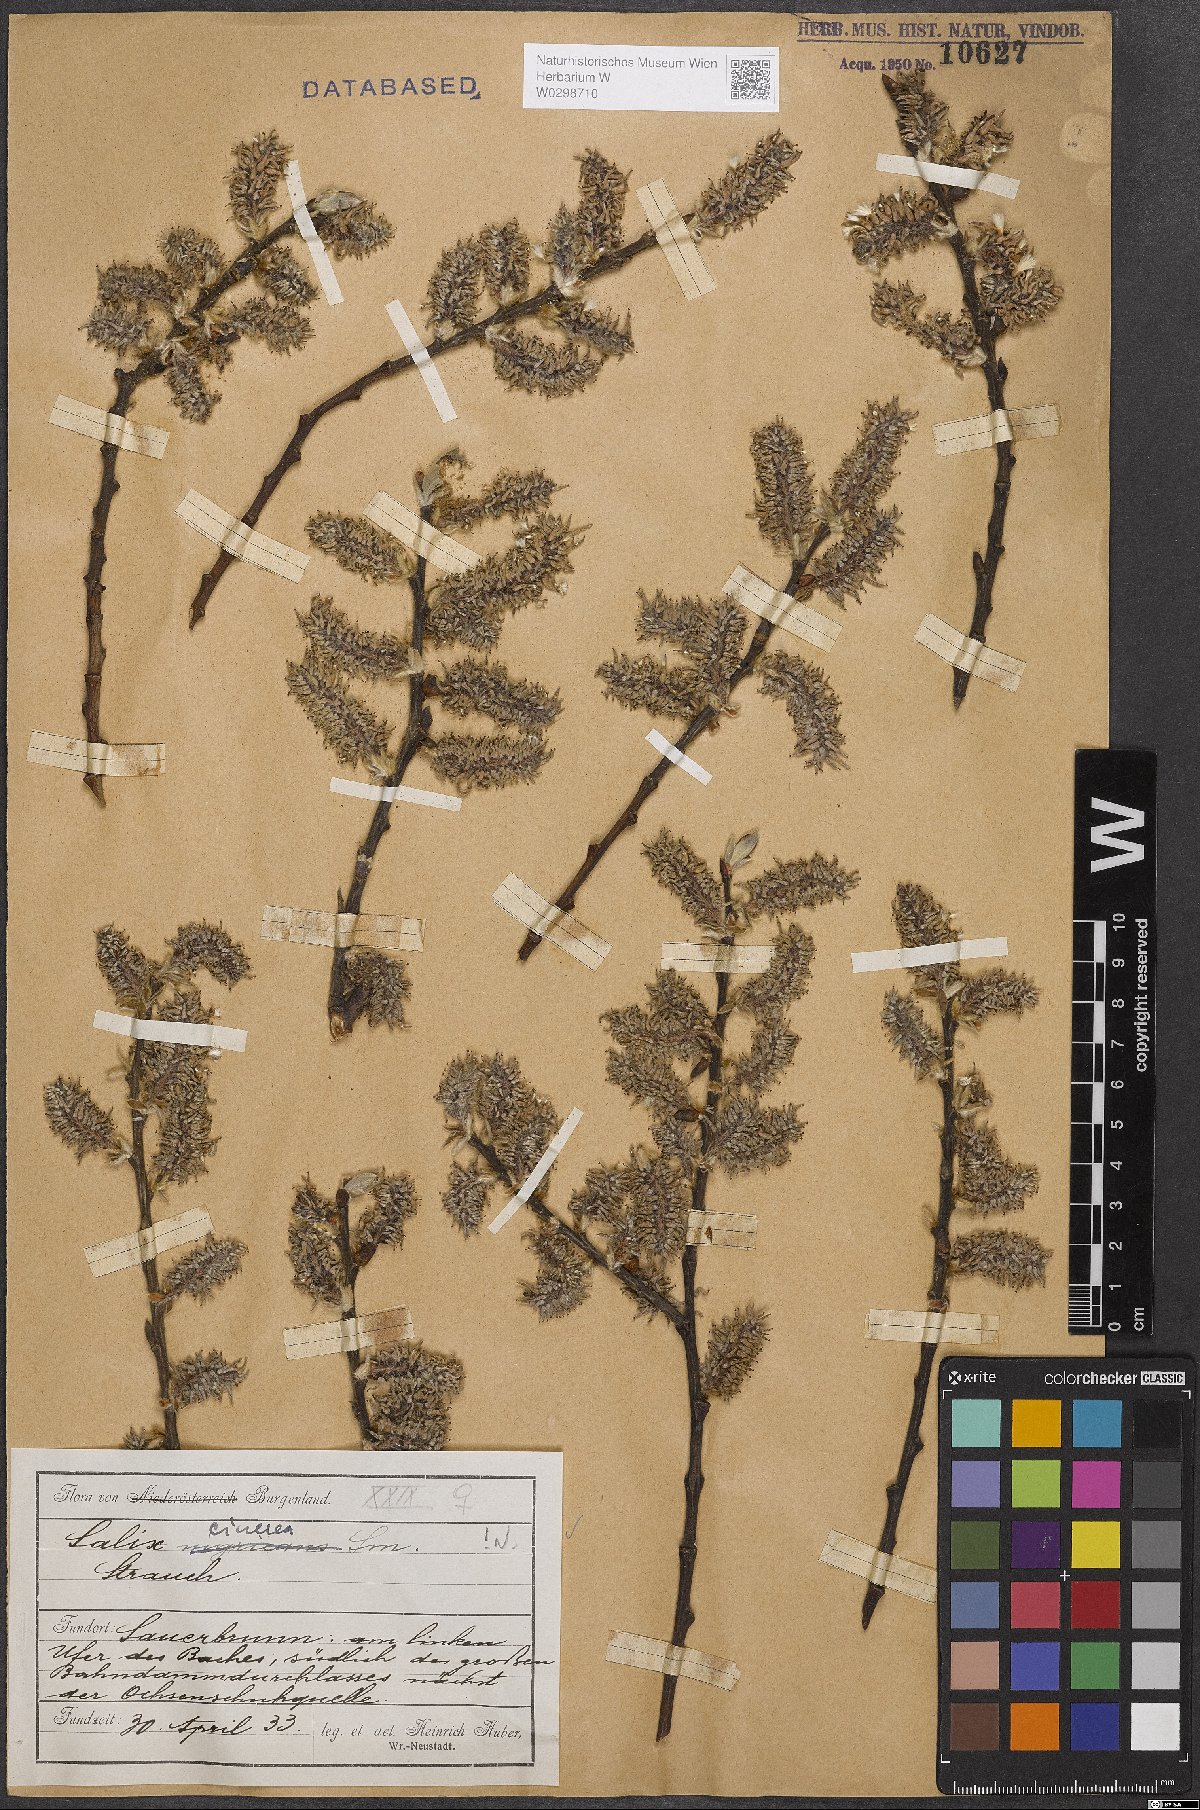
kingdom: Plantae
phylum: Tracheophyta
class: Magnoliopsida
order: Malpighiales
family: Salicaceae
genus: Salix
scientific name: Salix cinerea
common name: Common sallow
